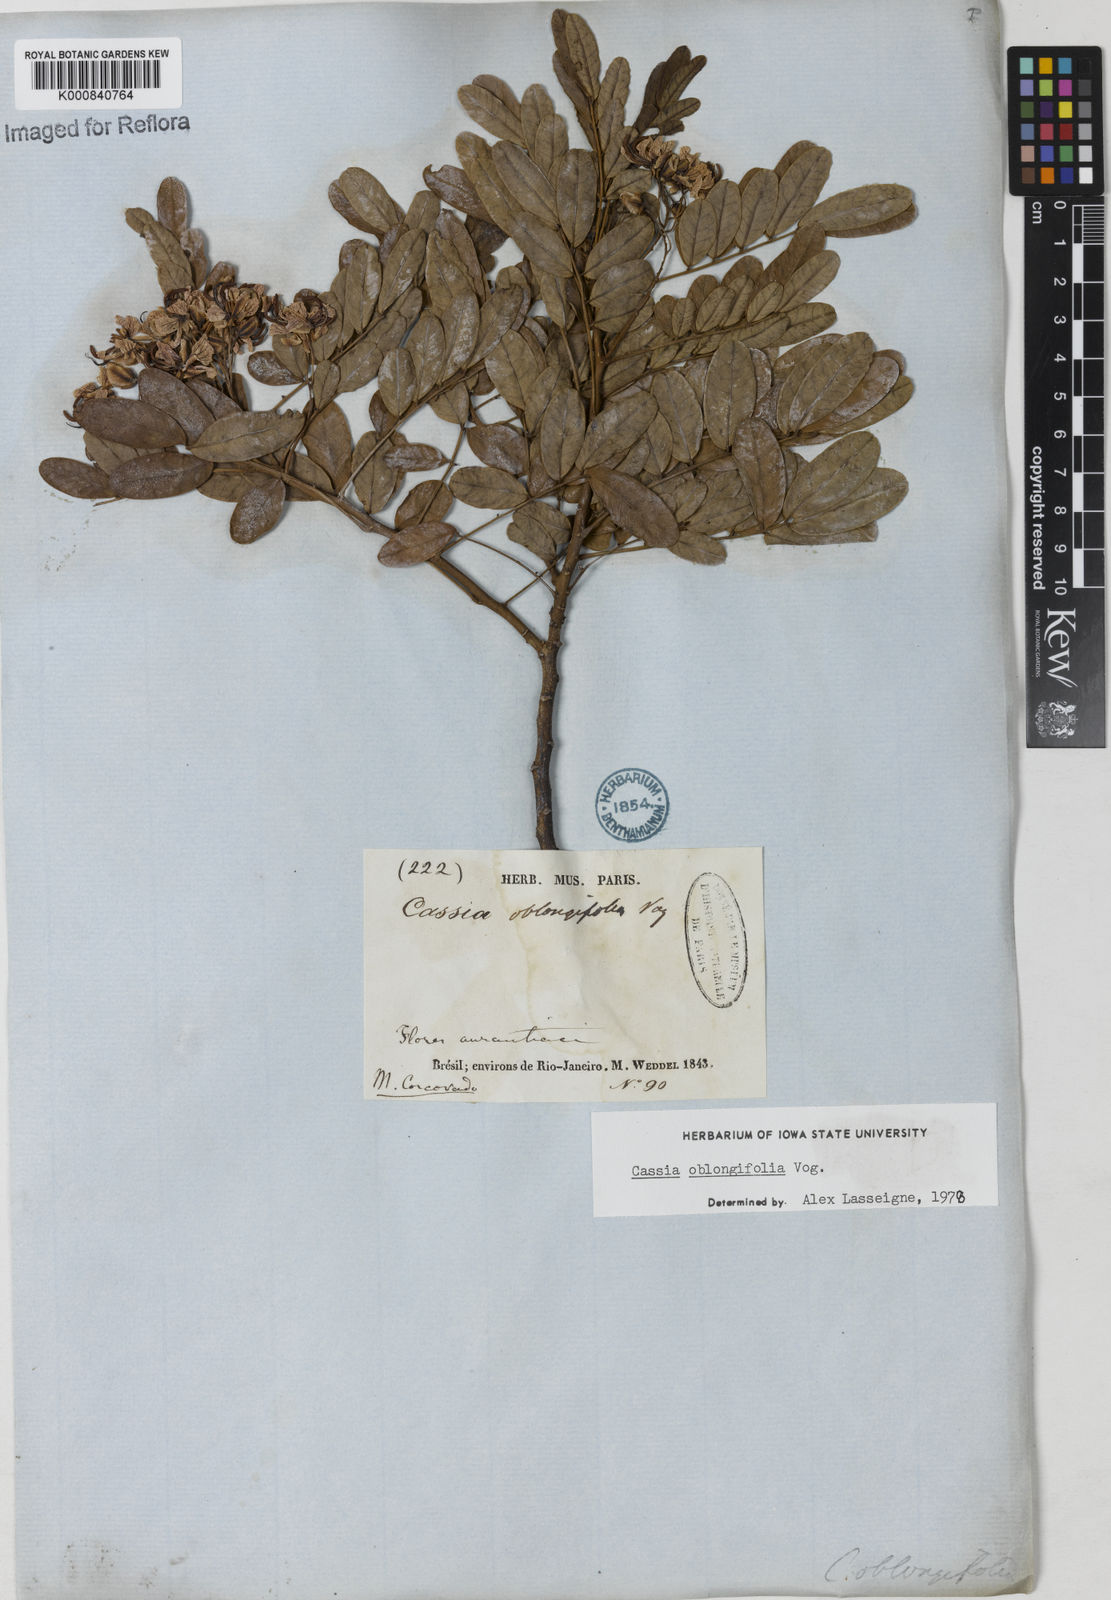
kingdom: Plantae
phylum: Tracheophyta
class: Magnoliopsida
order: Fabales
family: Fabaceae
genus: Senna
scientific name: Senna oblongifolia
